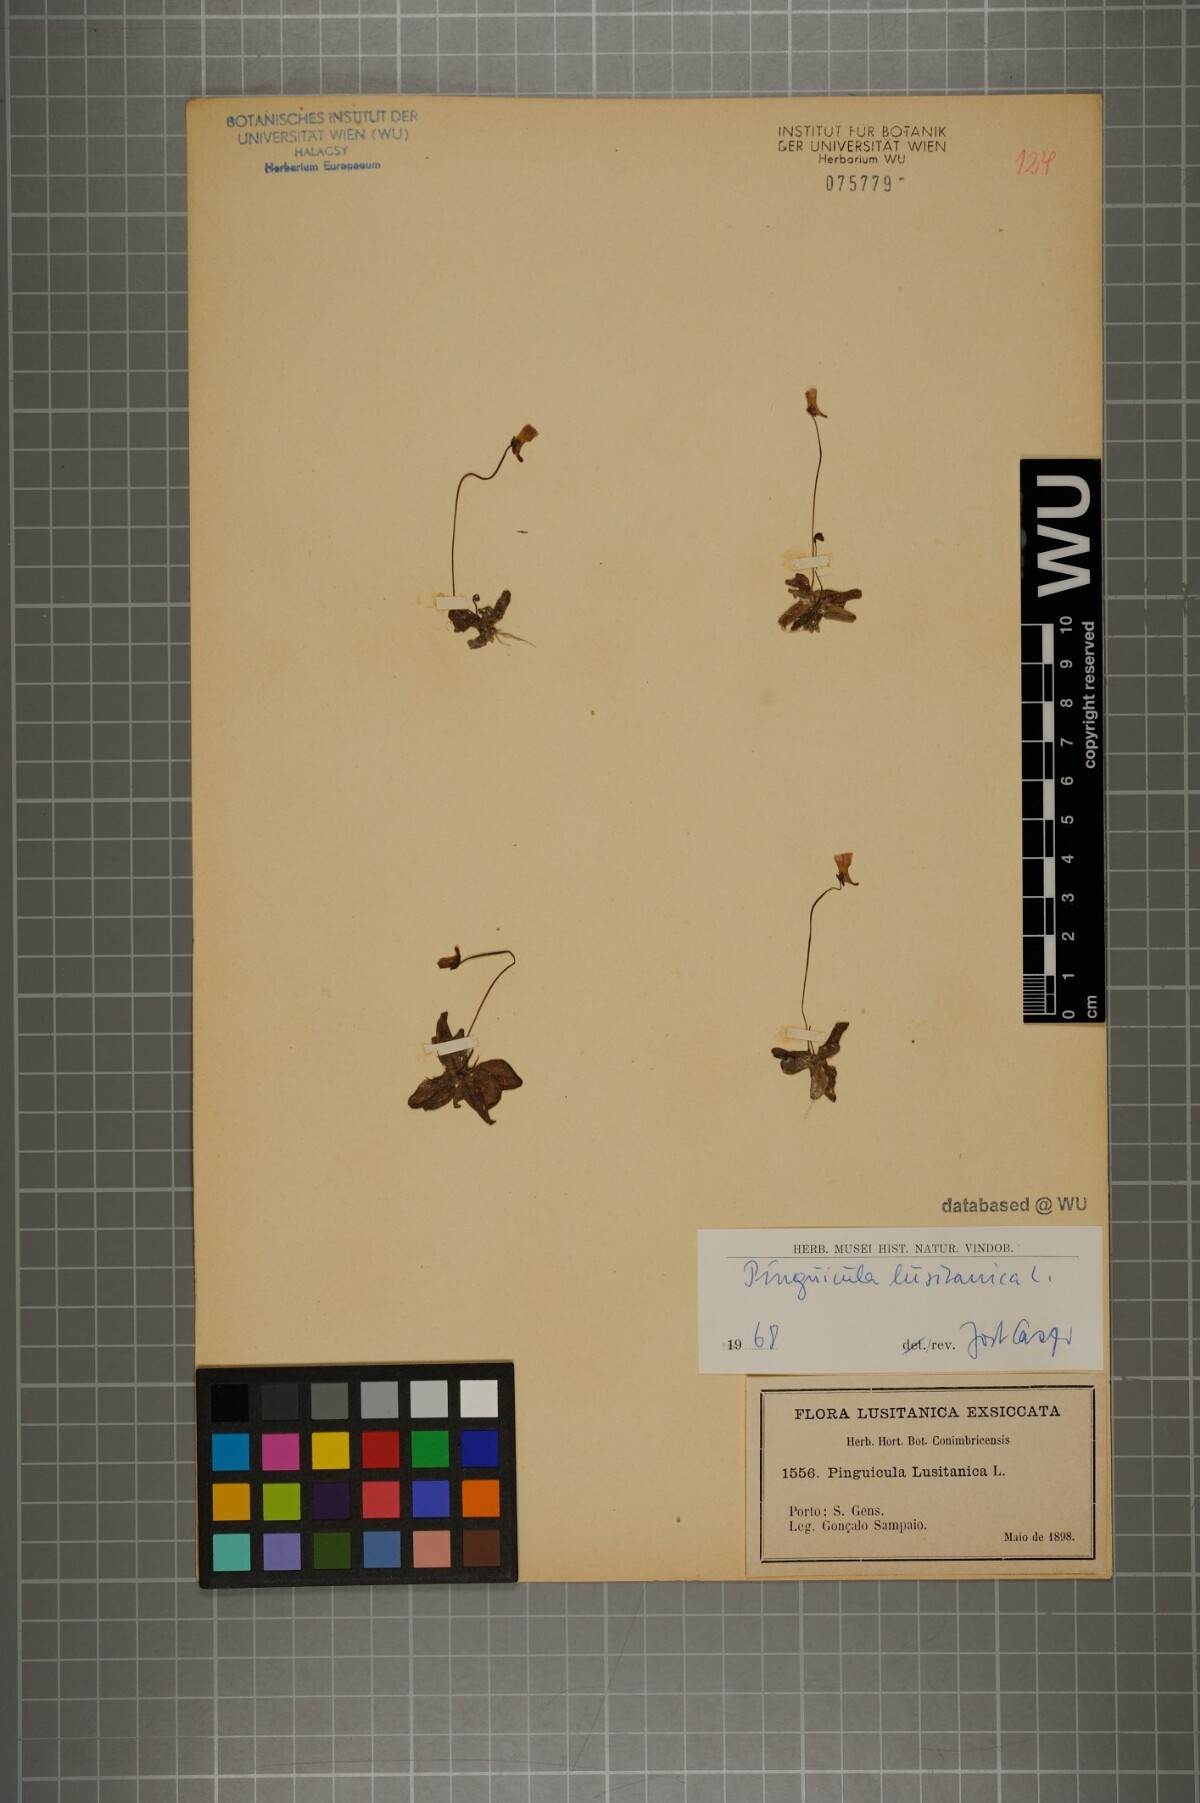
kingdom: Plantae
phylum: Tracheophyta
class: Magnoliopsida
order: Lamiales
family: Lentibulariaceae
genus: Pinguicula
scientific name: Pinguicula lusitanica
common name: Pale butterwort
